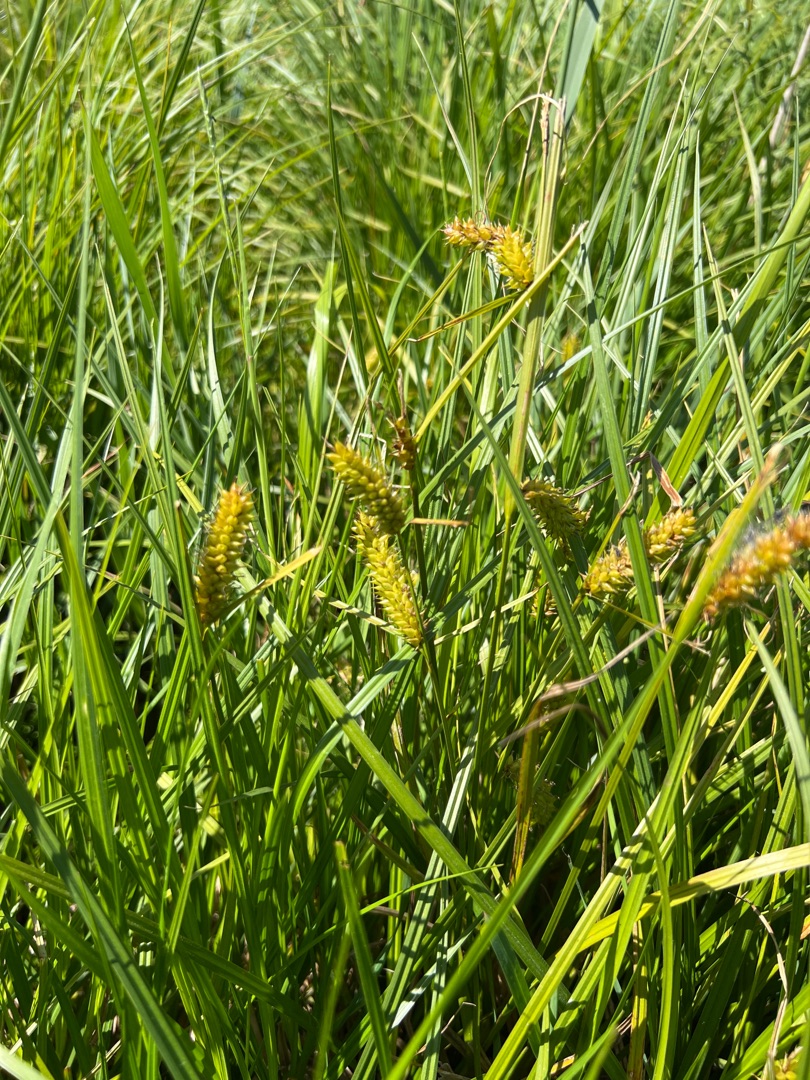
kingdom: Plantae
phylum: Tracheophyta
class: Liliopsida
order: Poales
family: Cyperaceae
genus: Carex
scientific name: Carex vesicaria
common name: Blære-star
